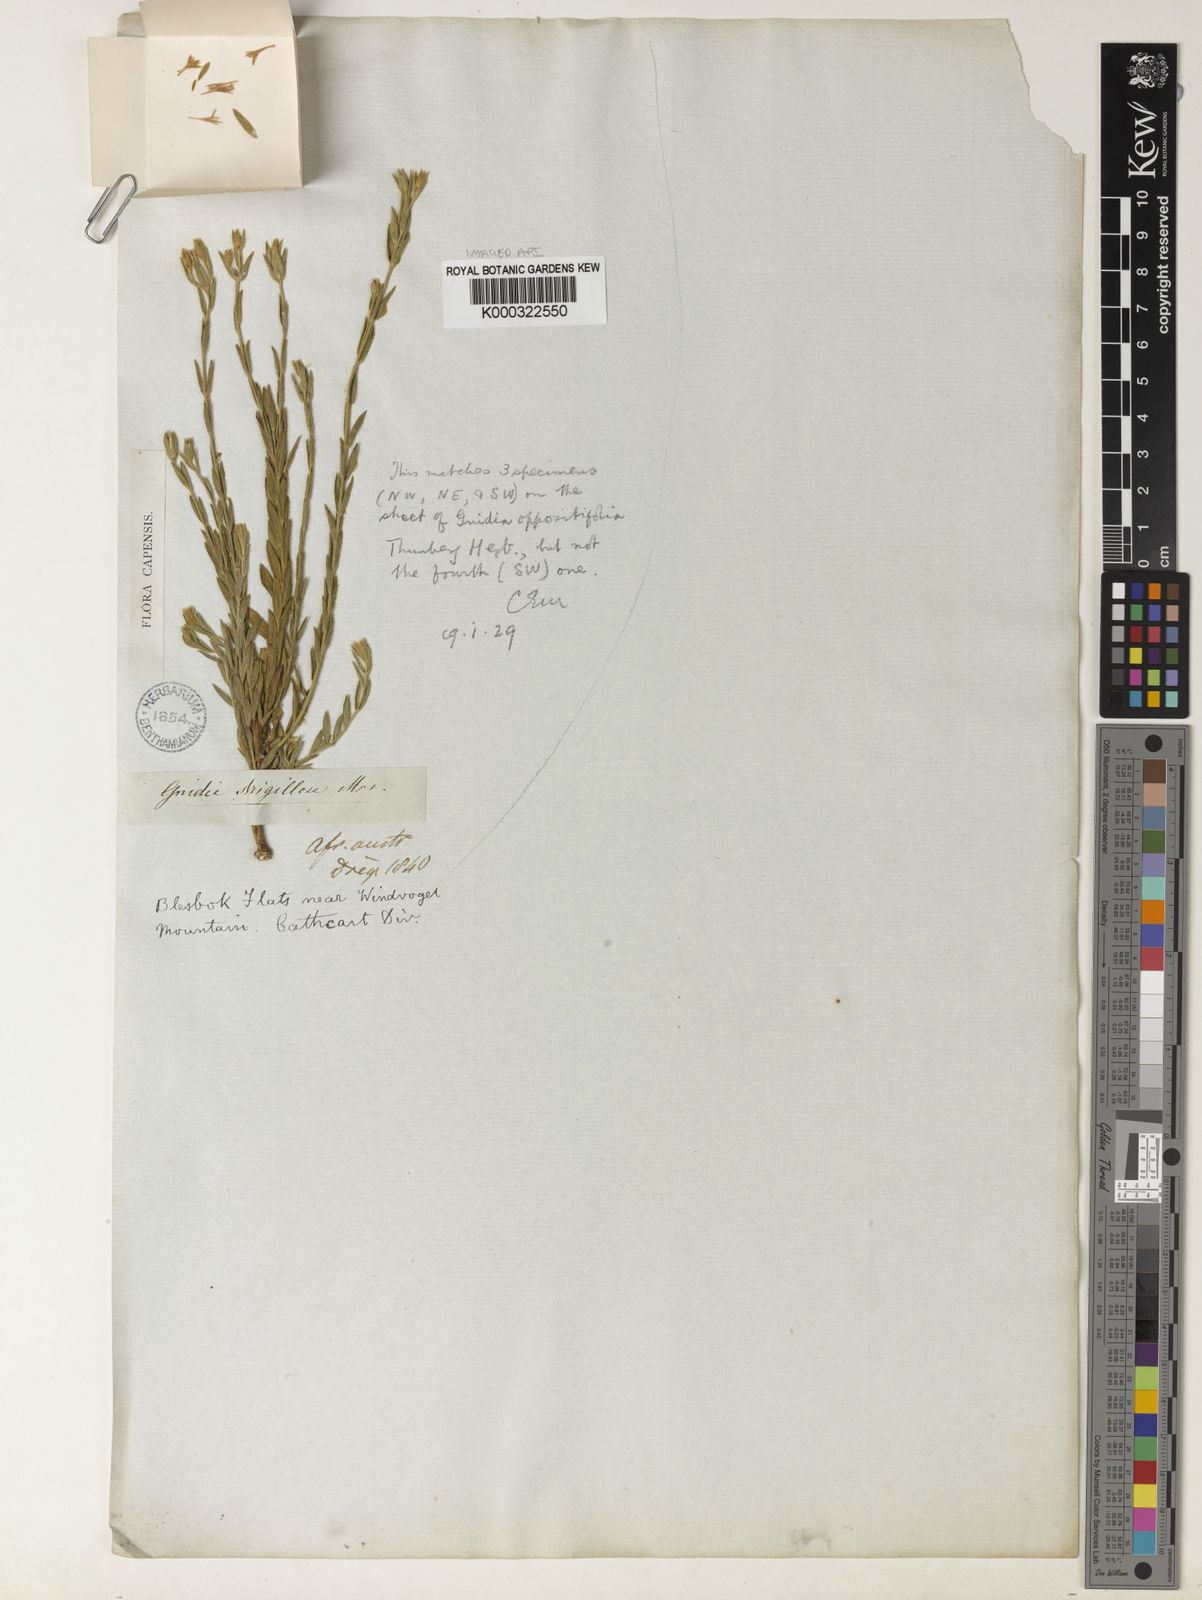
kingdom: Plantae
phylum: Tracheophyta
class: Magnoliopsida
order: Malvales
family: Thymelaeaceae
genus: Gnidia
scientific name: Gnidia strigillosa
